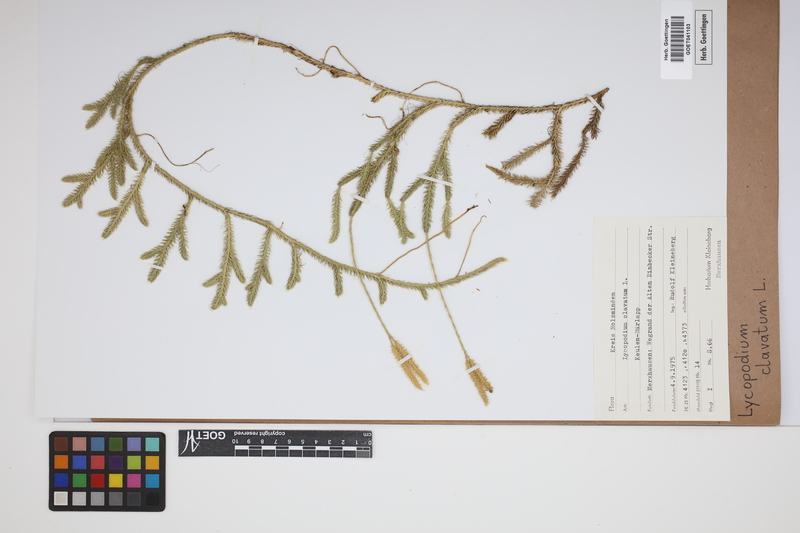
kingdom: Plantae
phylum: Tracheophyta
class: Lycopodiopsida
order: Lycopodiales
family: Lycopodiaceae
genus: Lycopodium
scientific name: Lycopodium clavatum
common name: Stag's-horn clubmoss
